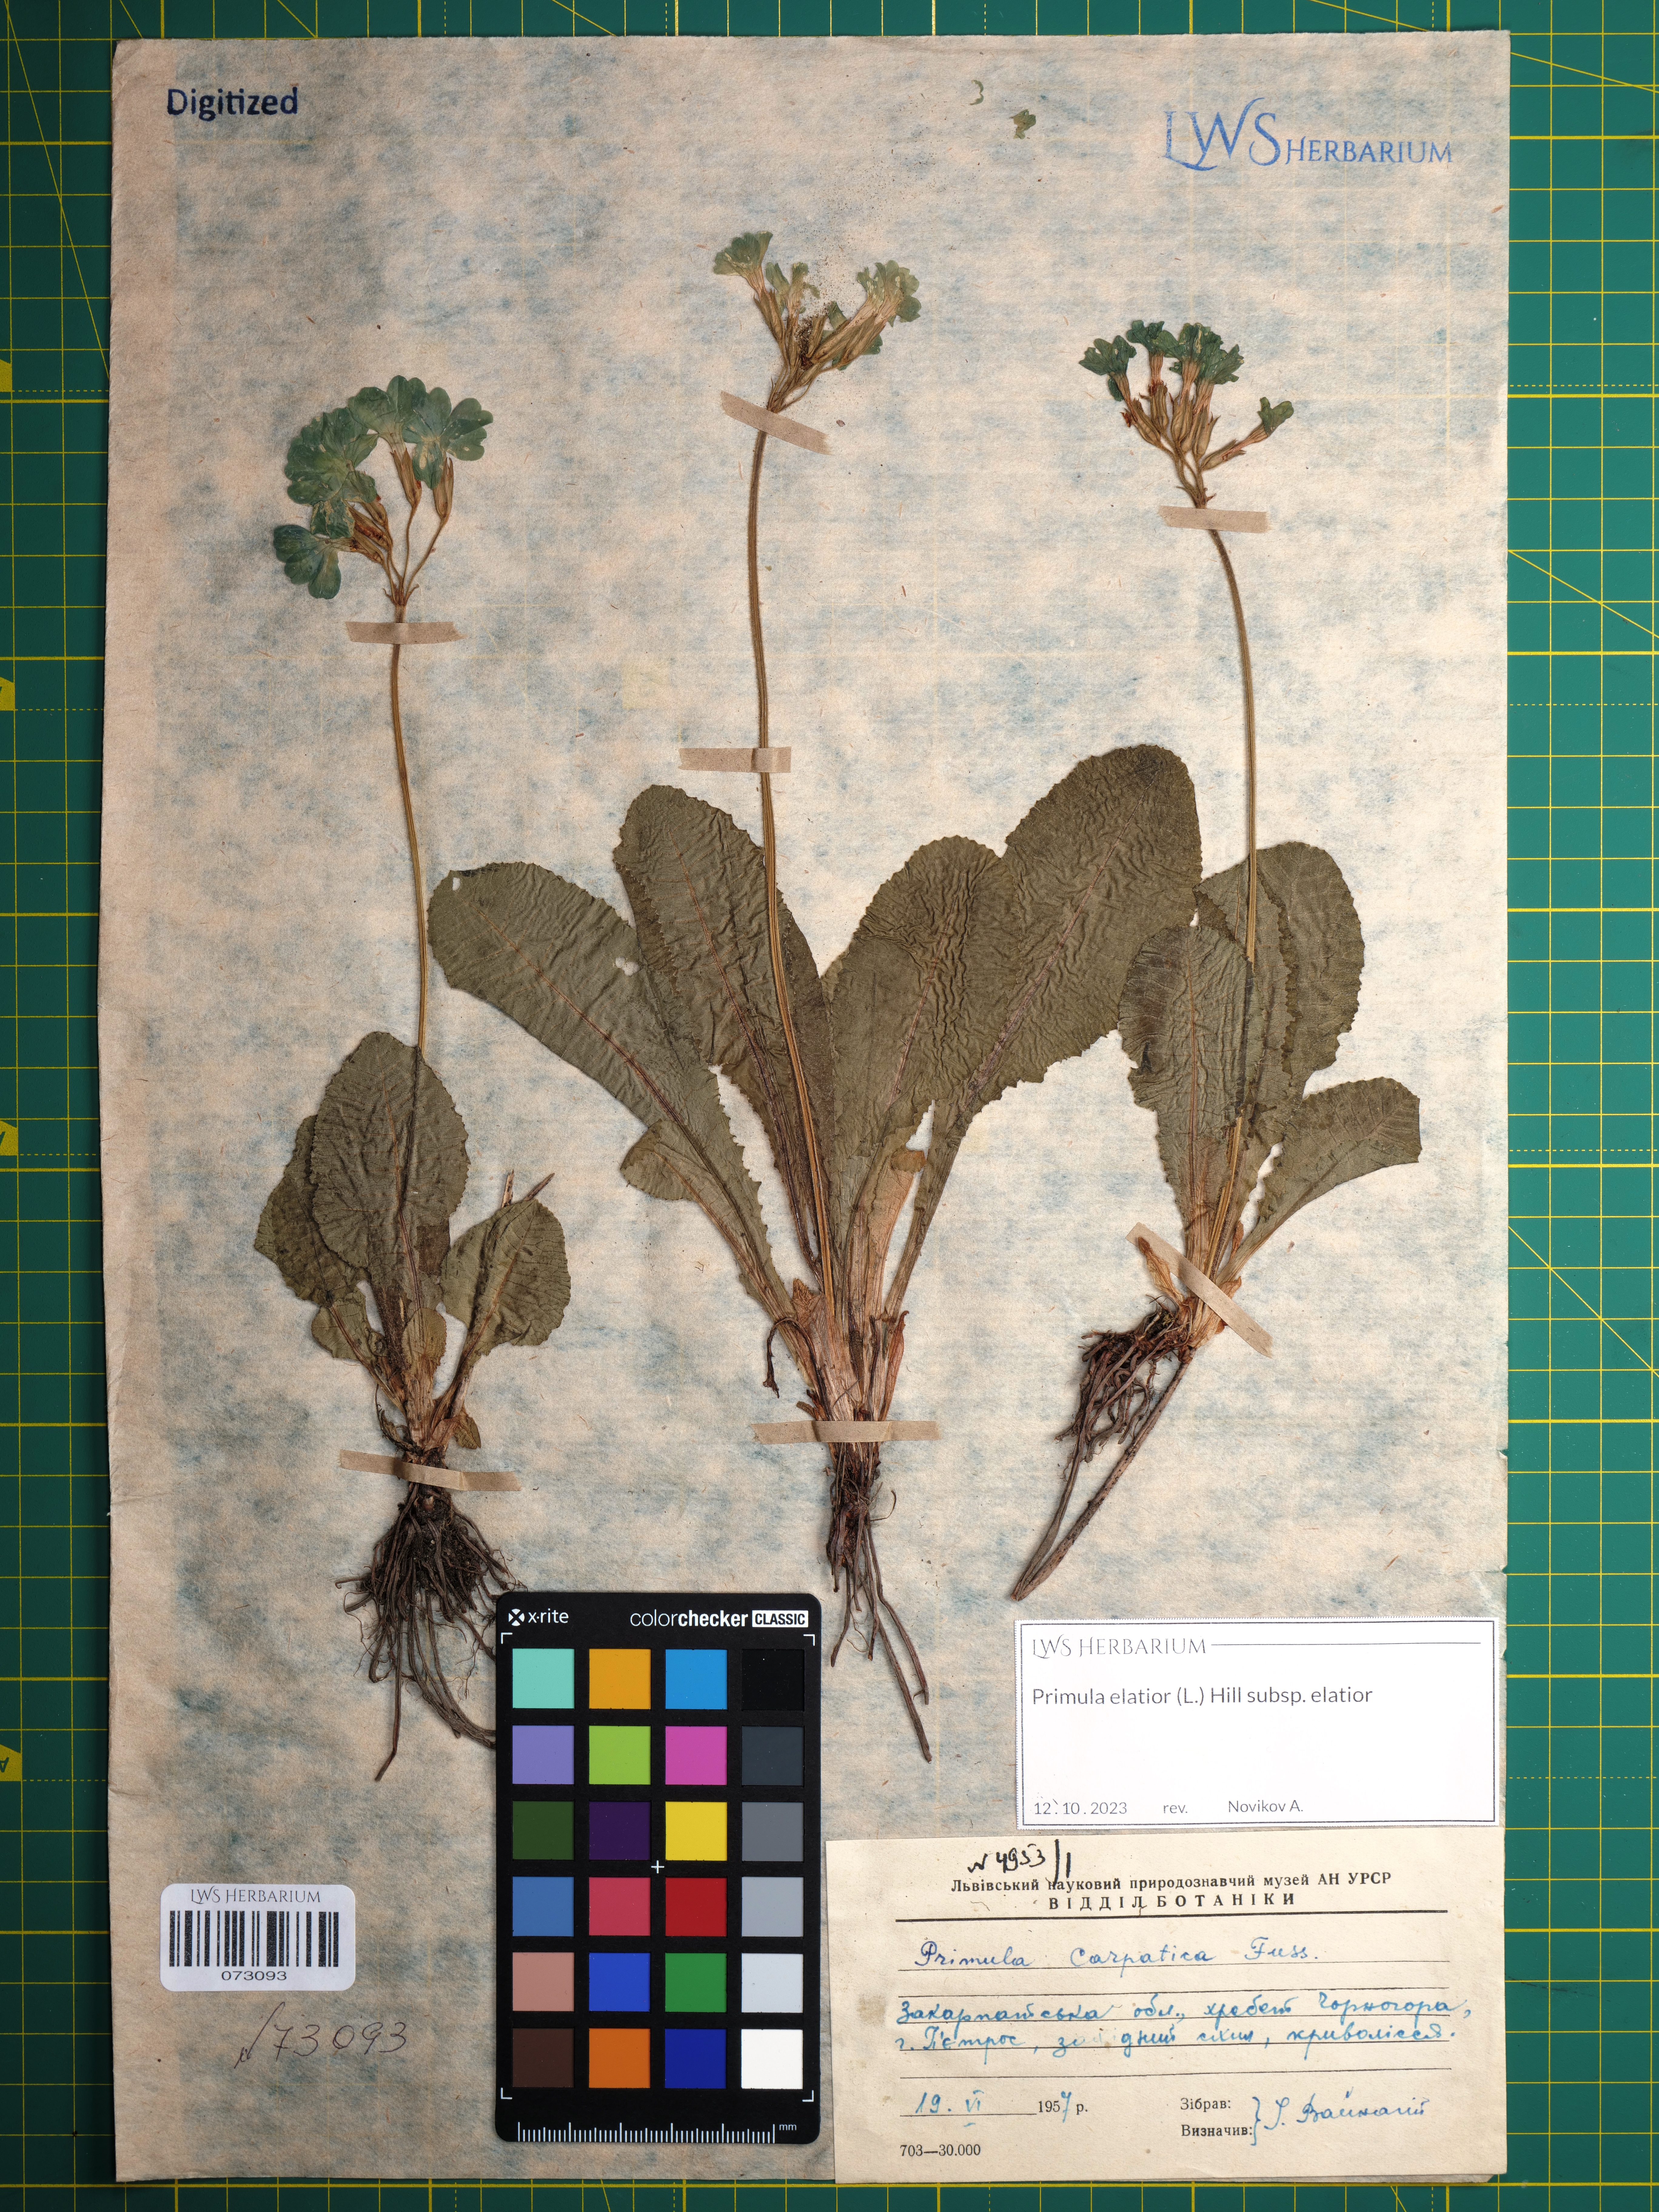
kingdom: Plantae
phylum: Tracheophyta
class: Magnoliopsida
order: Ericales
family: Primulaceae
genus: Primula
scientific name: Primula elatior
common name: Oxlip
